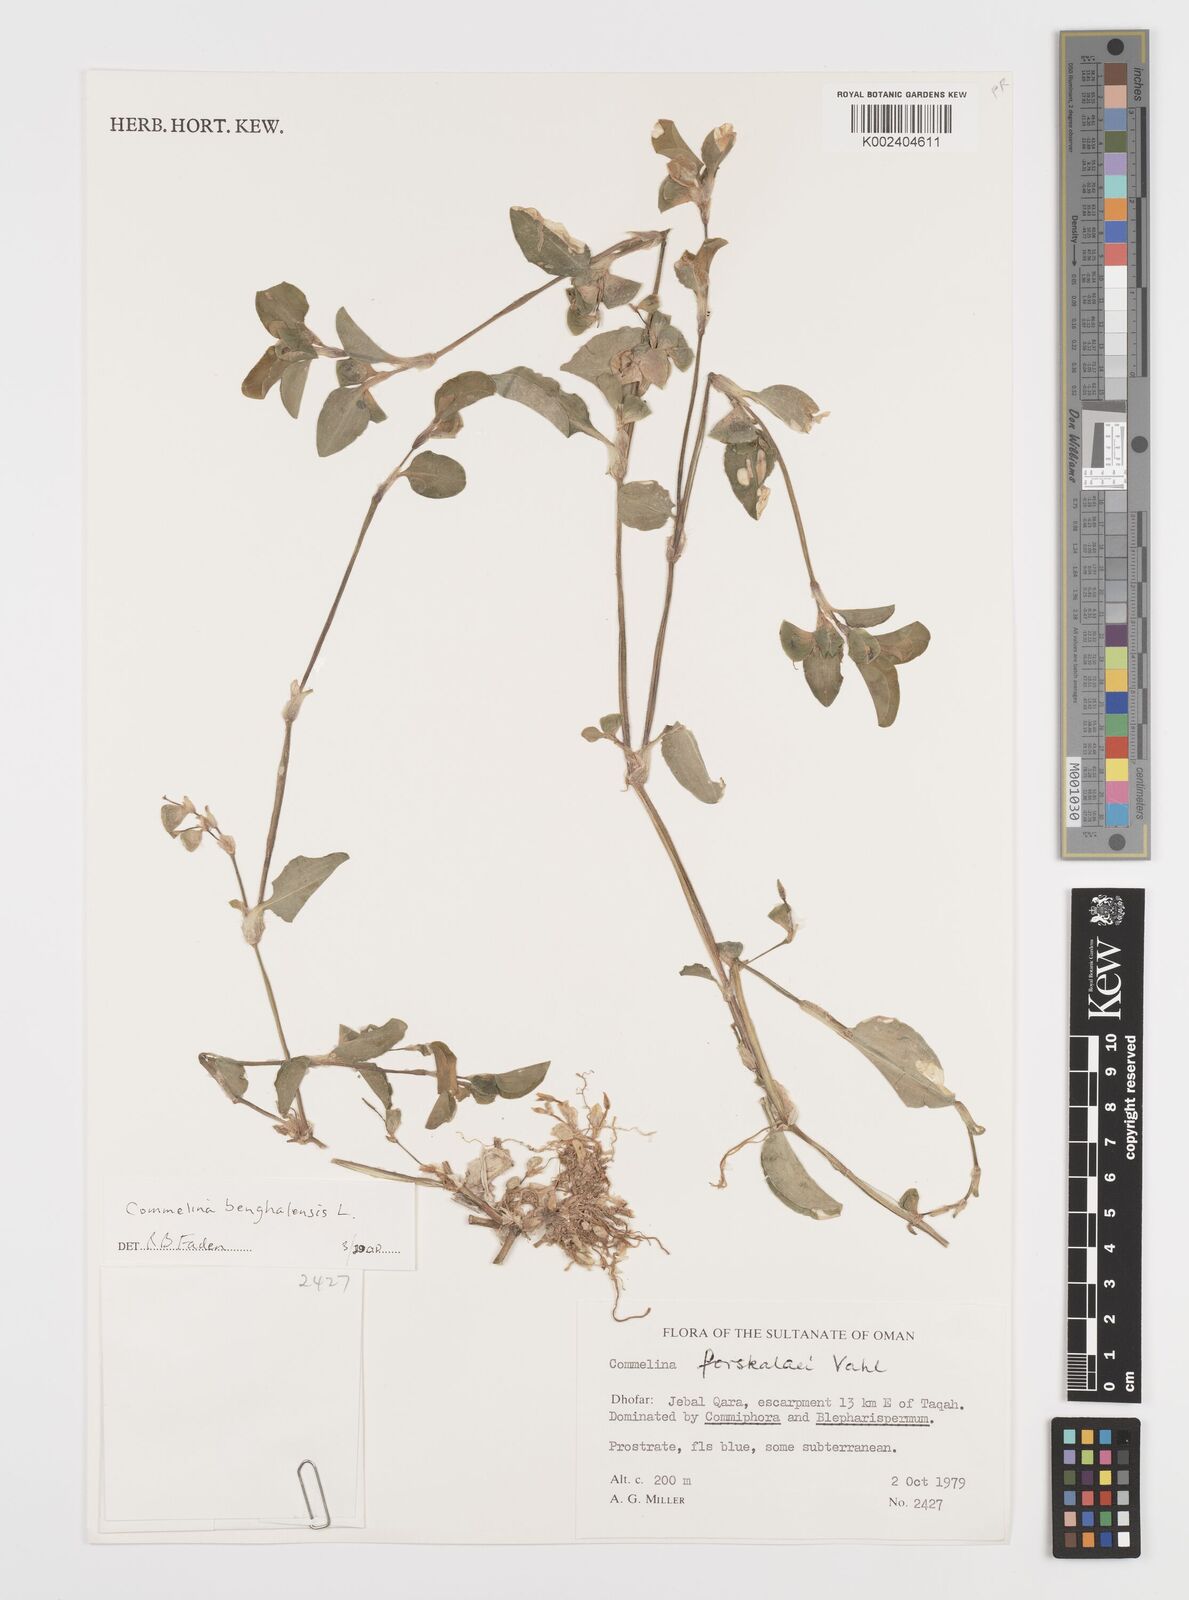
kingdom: Plantae
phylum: Tracheophyta
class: Liliopsida
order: Commelinales
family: Commelinaceae
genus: Commelina
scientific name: Commelina benghalensis
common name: Jio
